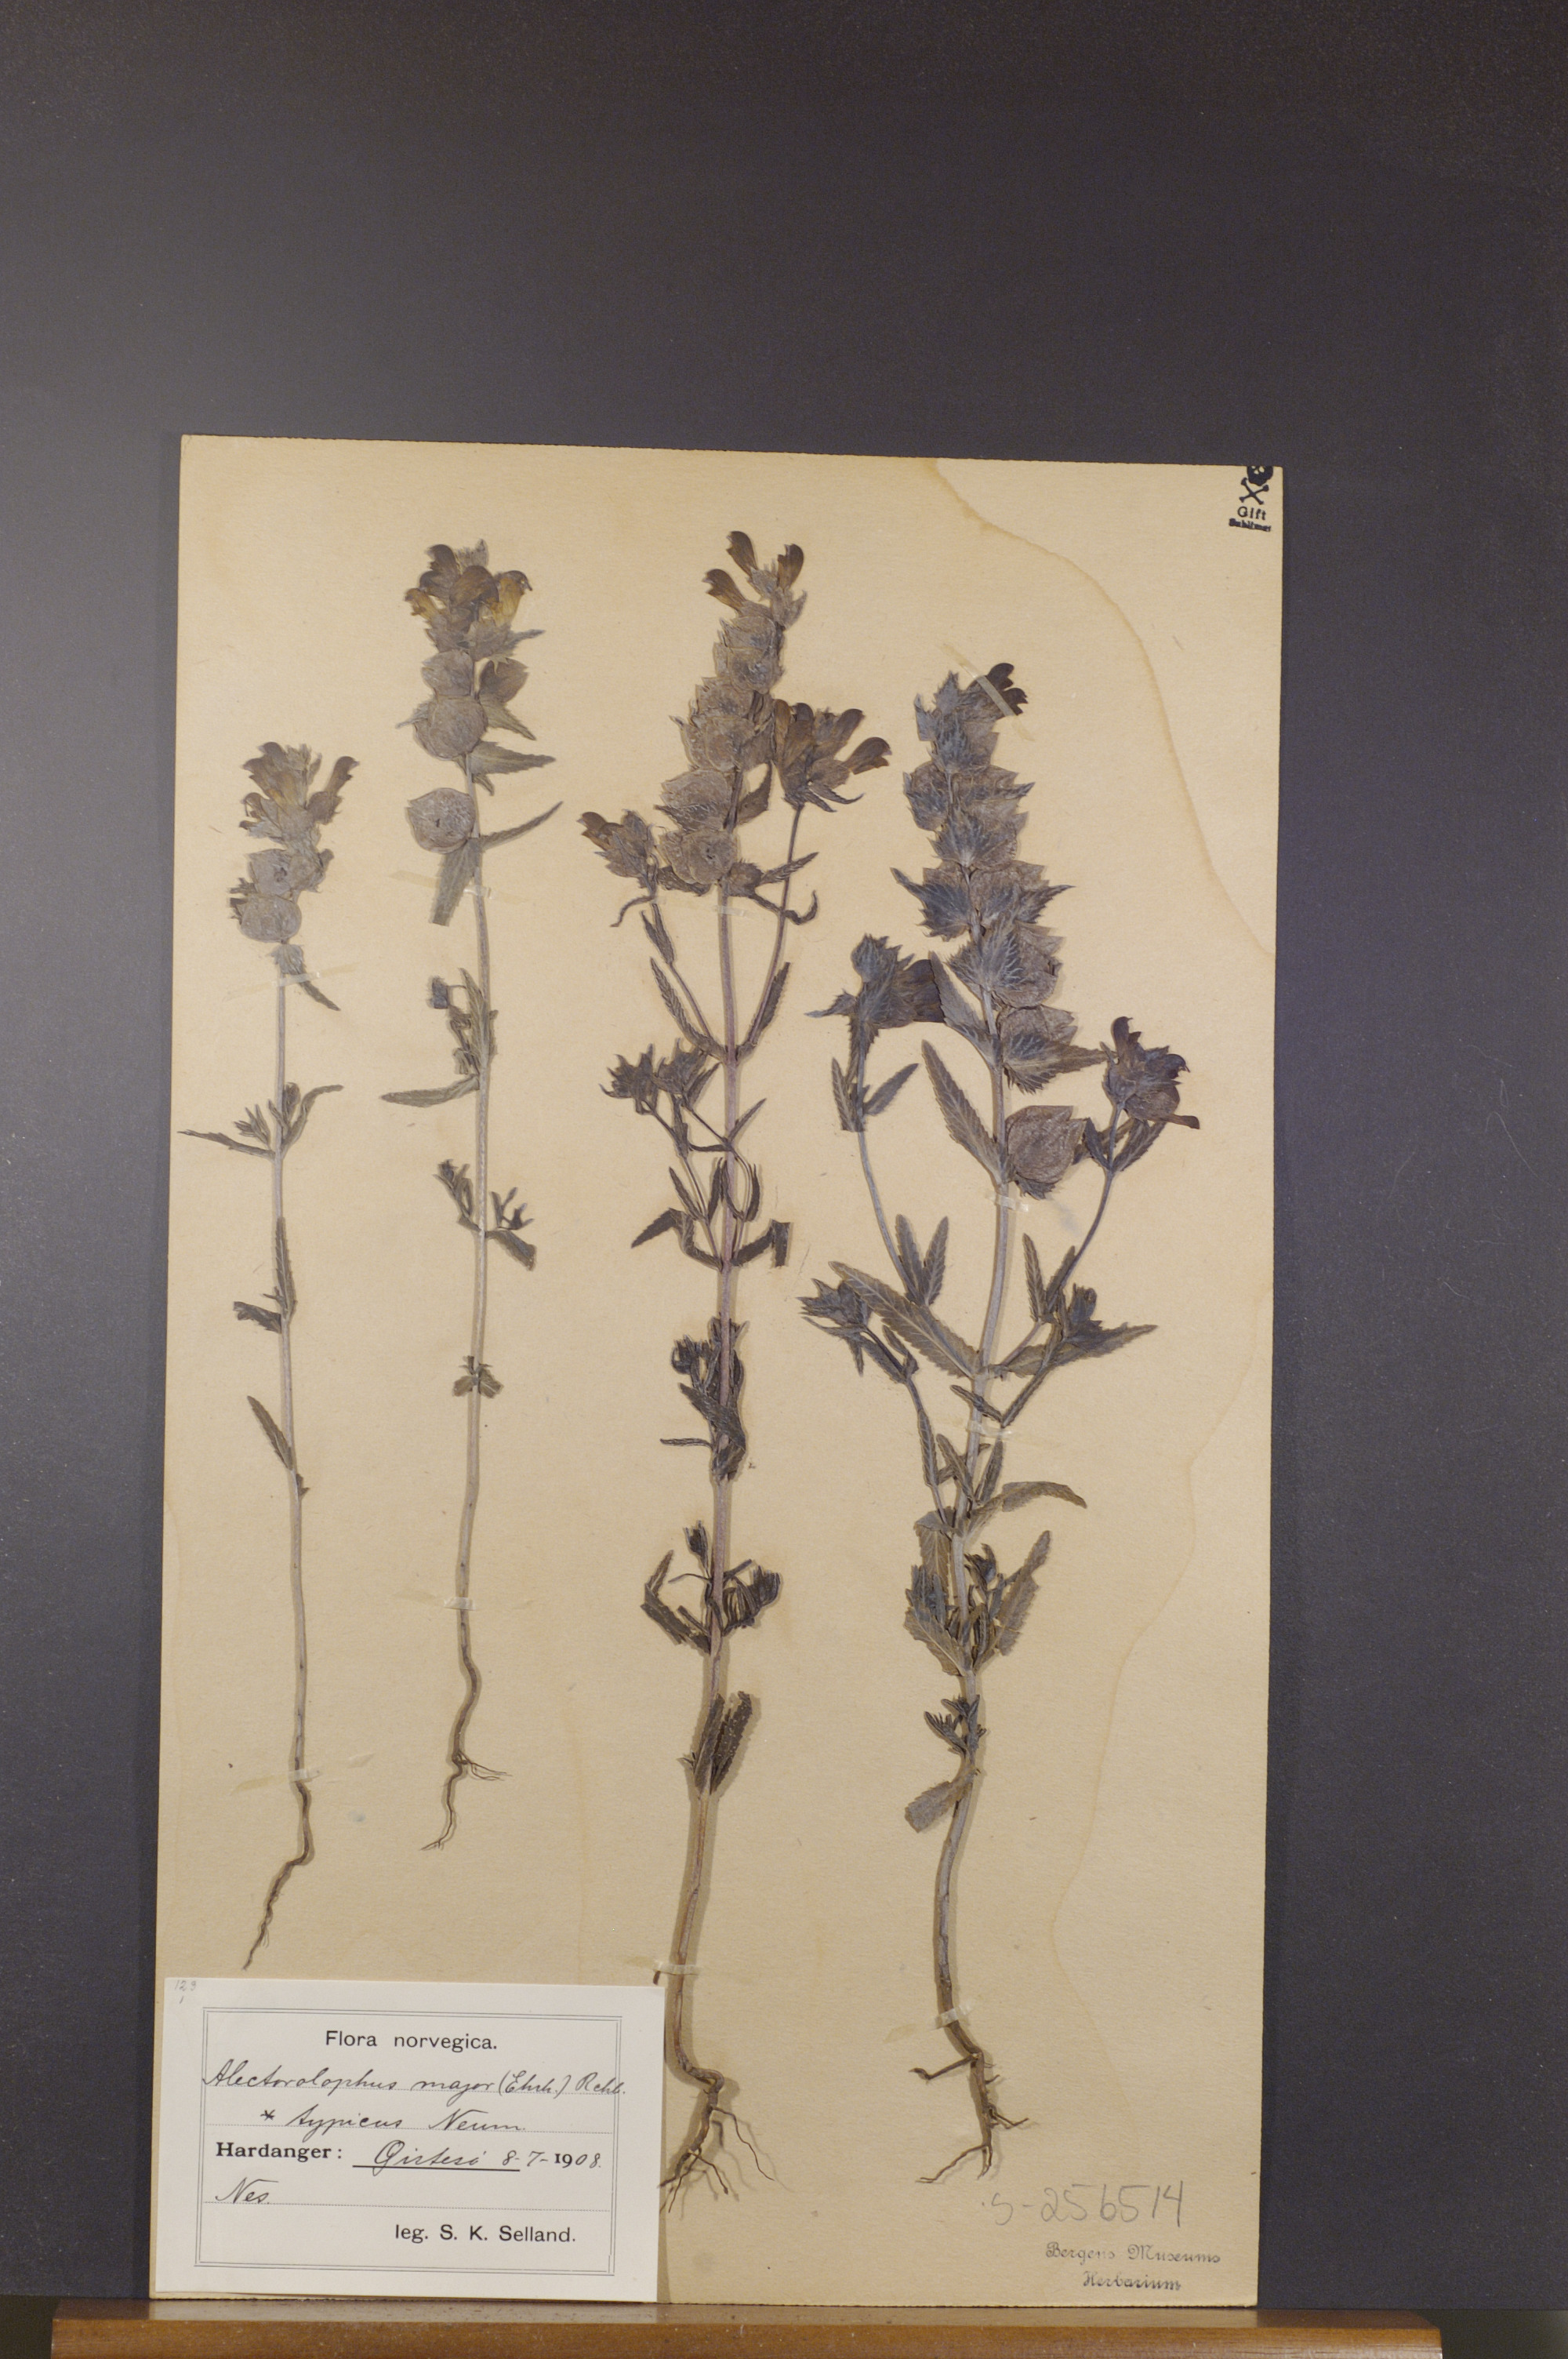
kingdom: Plantae
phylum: Tracheophyta
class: Magnoliopsida
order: Lamiales
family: Orobanchaceae
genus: Rhinanthus
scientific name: Rhinanthus serotinus
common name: Late-flowering yellow rattle
